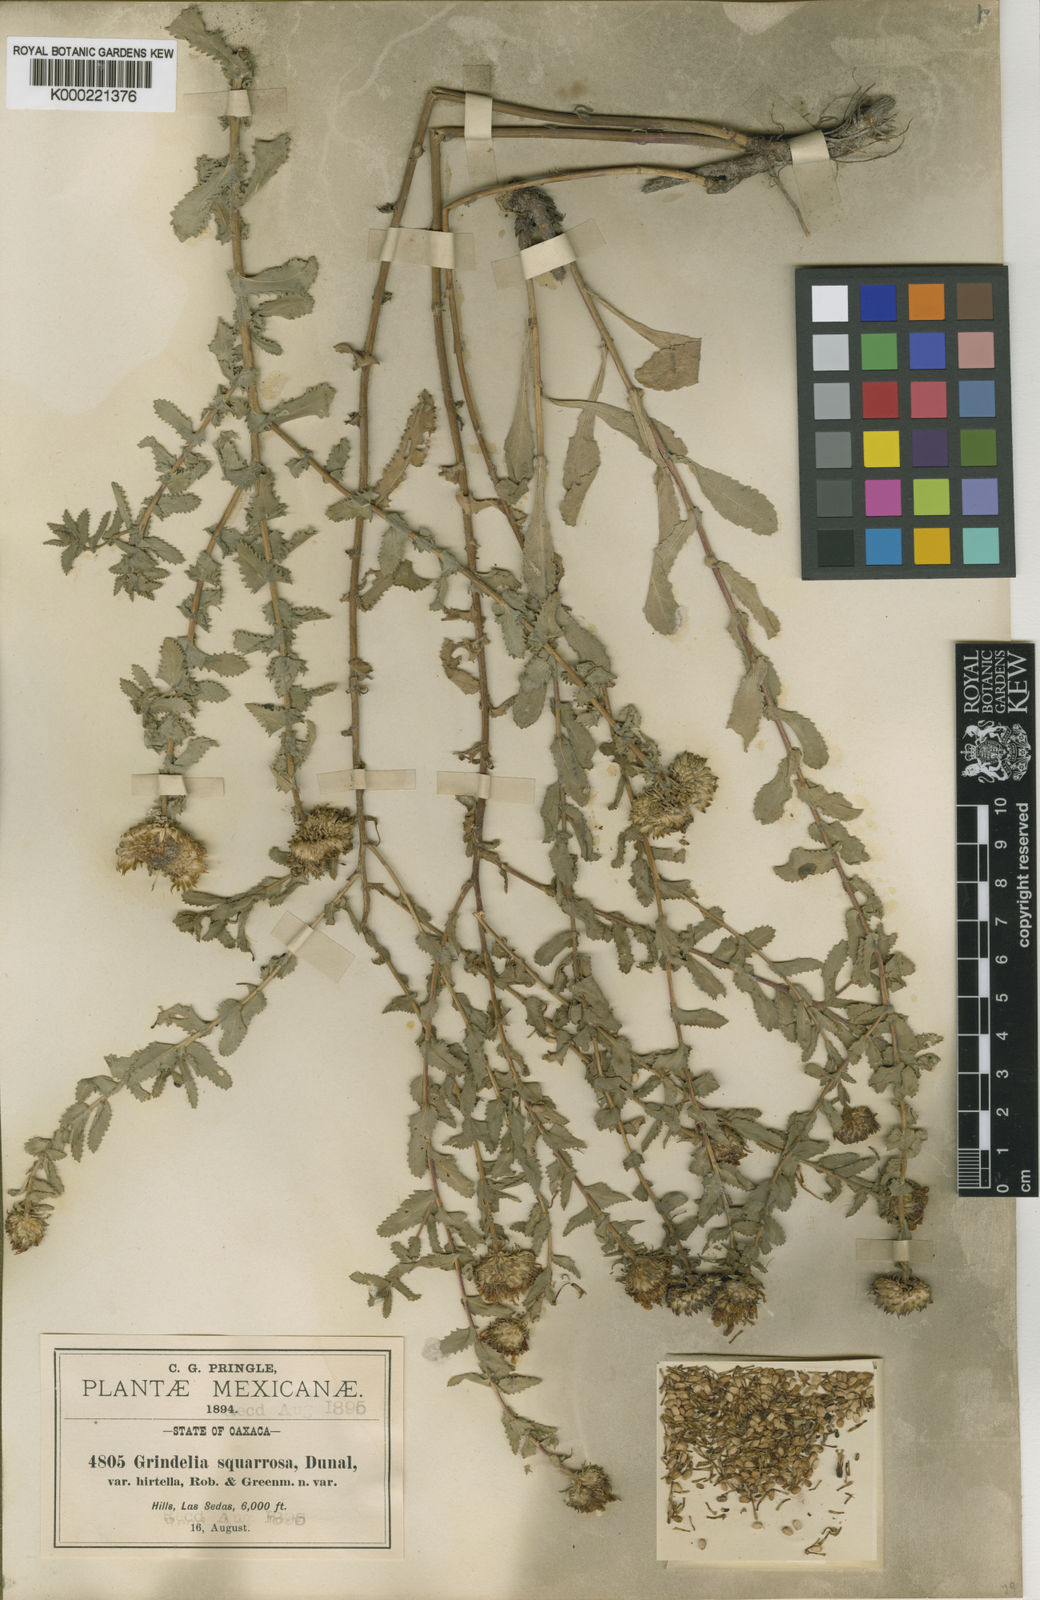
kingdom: Plantae
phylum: Tracheophyta
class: Magnoliopsida
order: Asterales
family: Asteraceae
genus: Grindelia
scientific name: Grindelia subdecurrens
